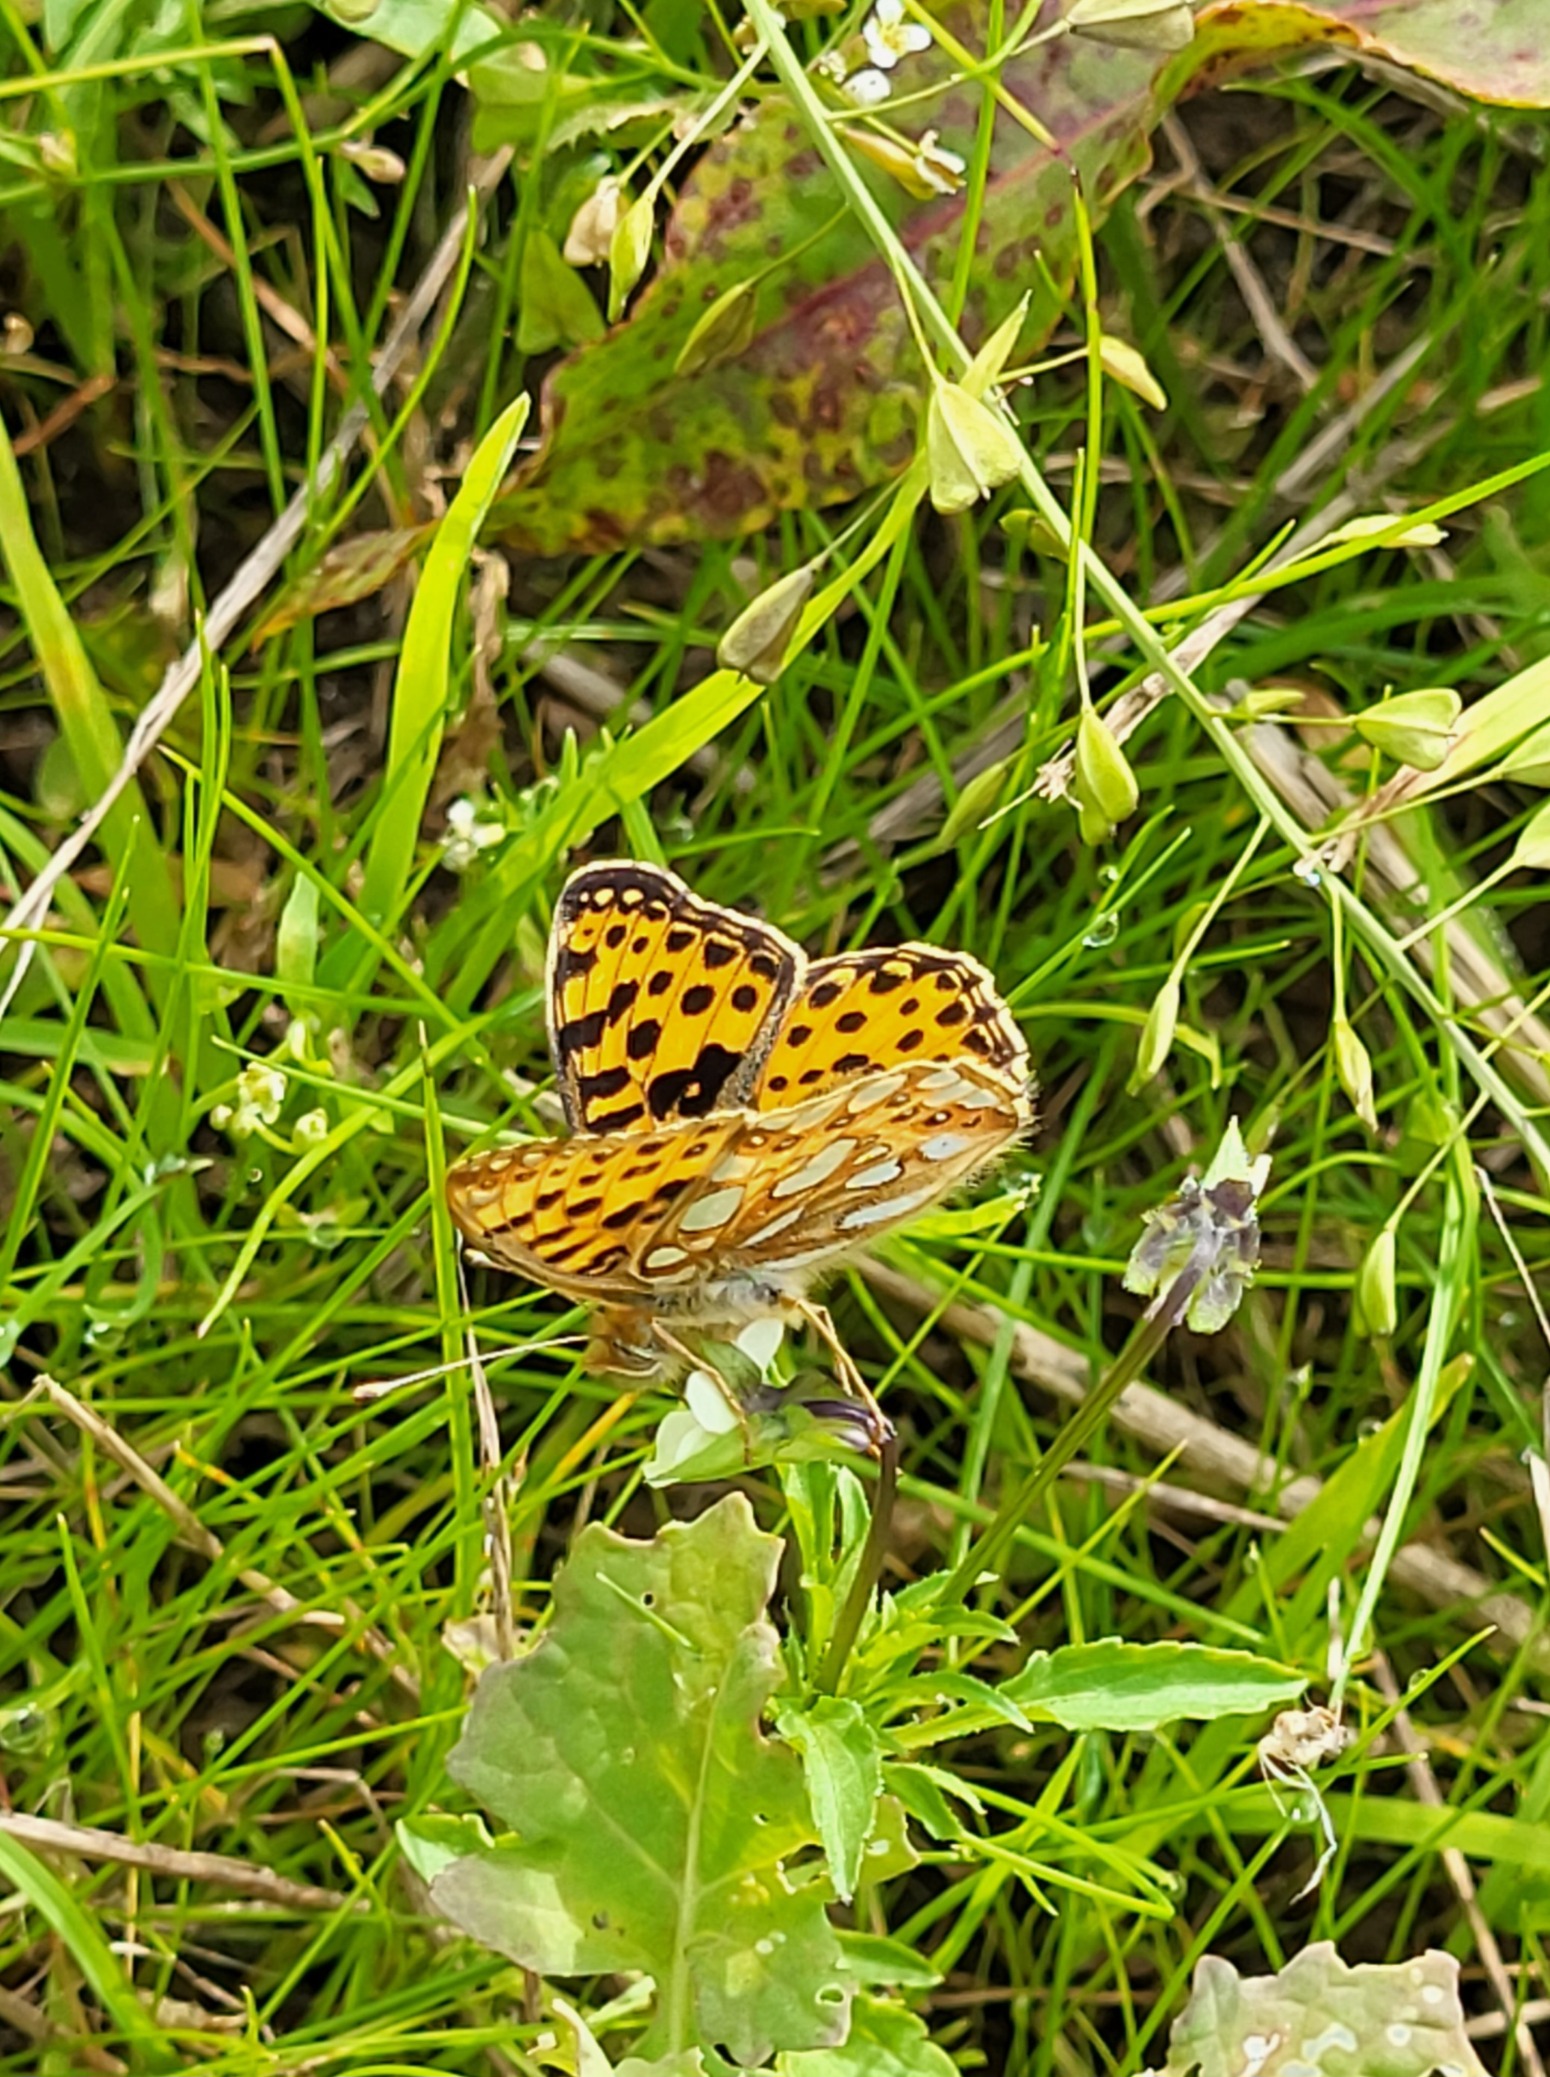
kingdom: Animalia
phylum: Arthropoda
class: Insecta
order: Lepidoptera
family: Nymphalidae
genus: Issoria
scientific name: Issoria lathonia
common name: Storplettet perlemorsommerfugl
